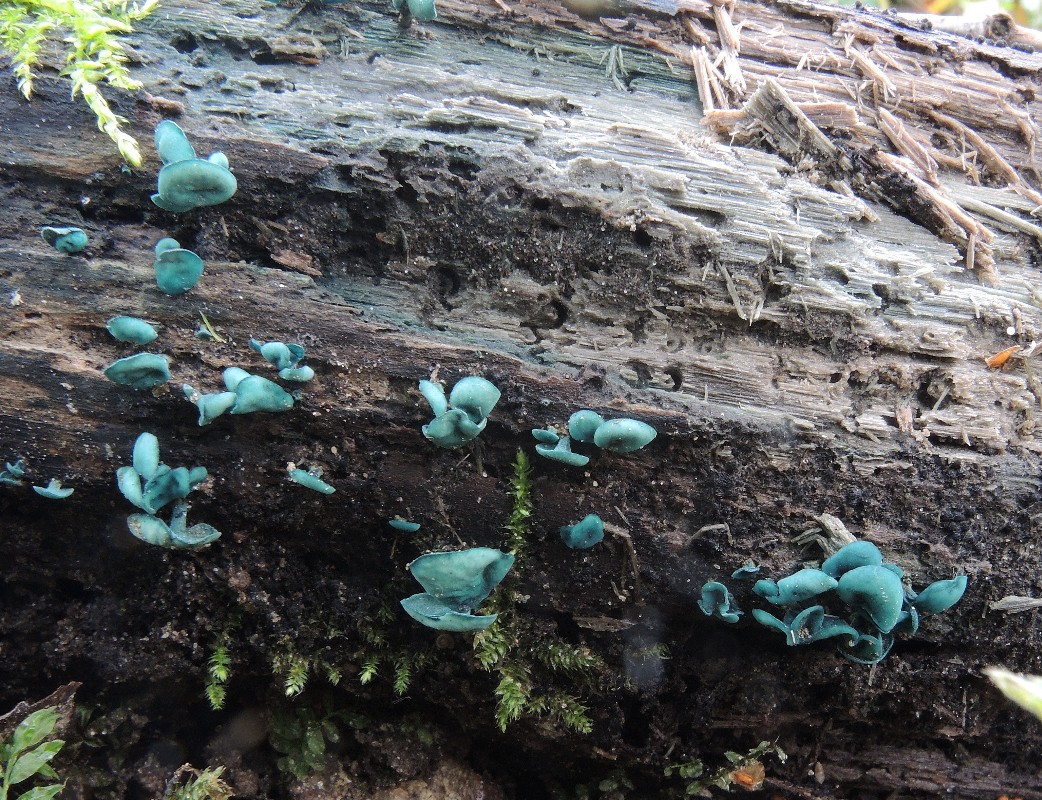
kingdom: Fungi
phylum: Ascomycota
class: Leotiomycetes
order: Helotiales
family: Chlorociboriaceae
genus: Chlorociboria
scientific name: Chlorociboria aeruginascens
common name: almindelig grønskive
